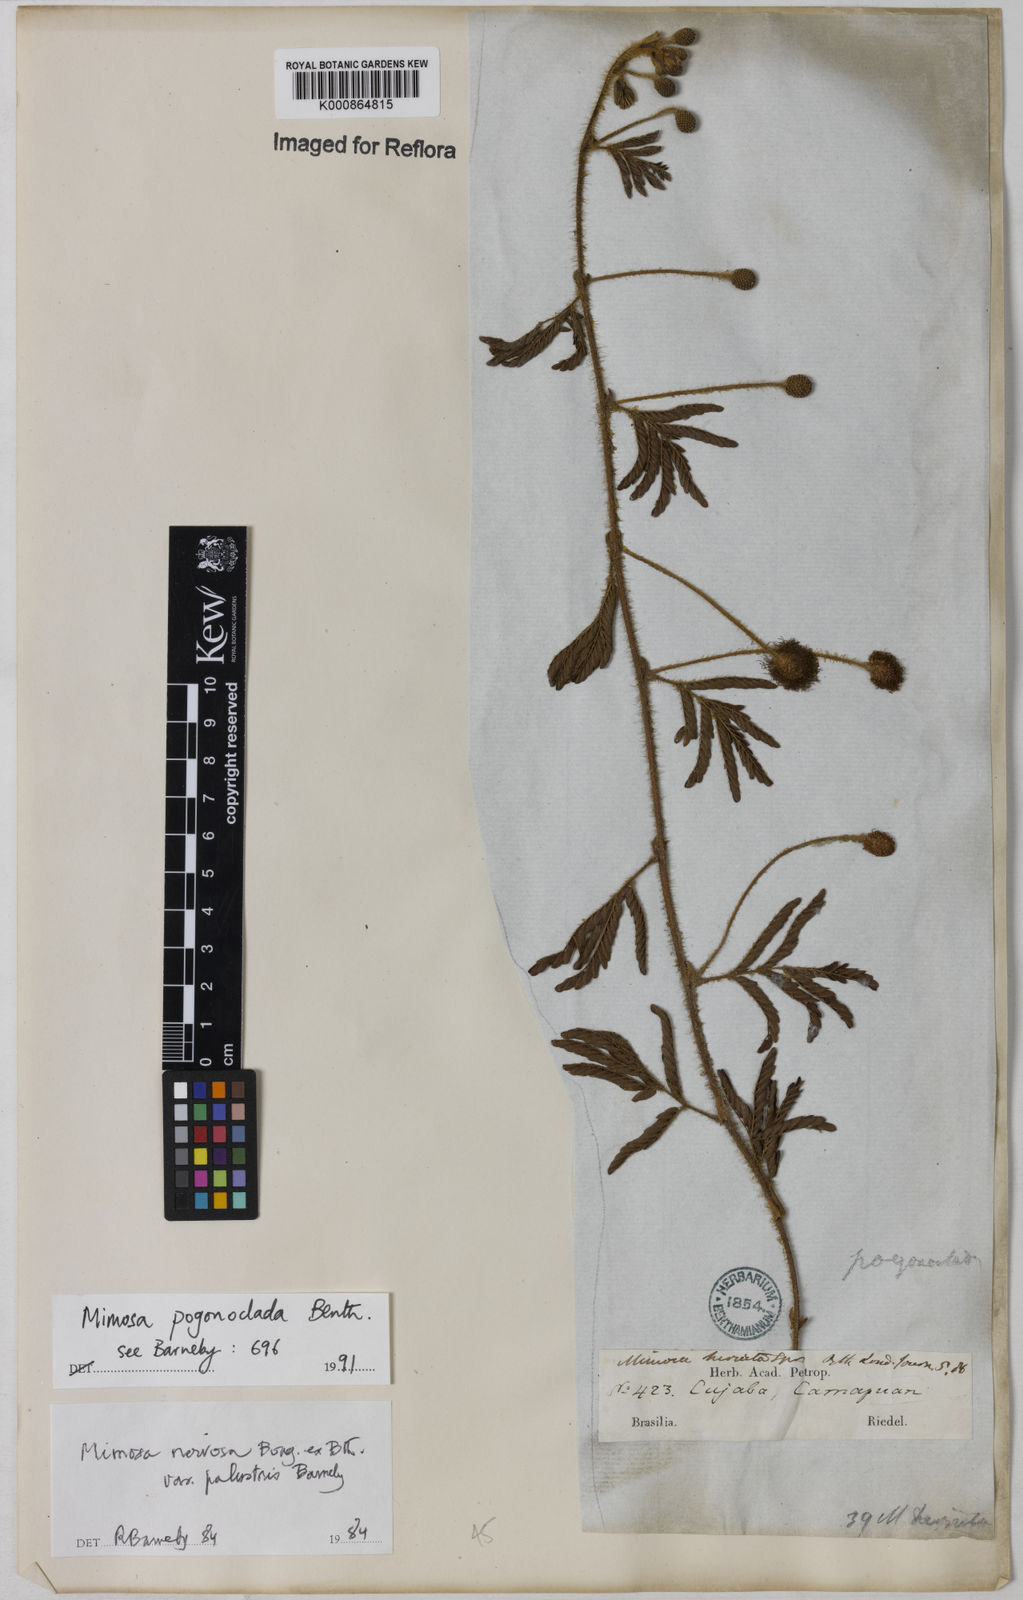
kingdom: Plantae
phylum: Tracheophyta
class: Magnoliopsida
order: Fabales
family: Fabaceae
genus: Mimosa
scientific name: Mimosa pogonoclada
